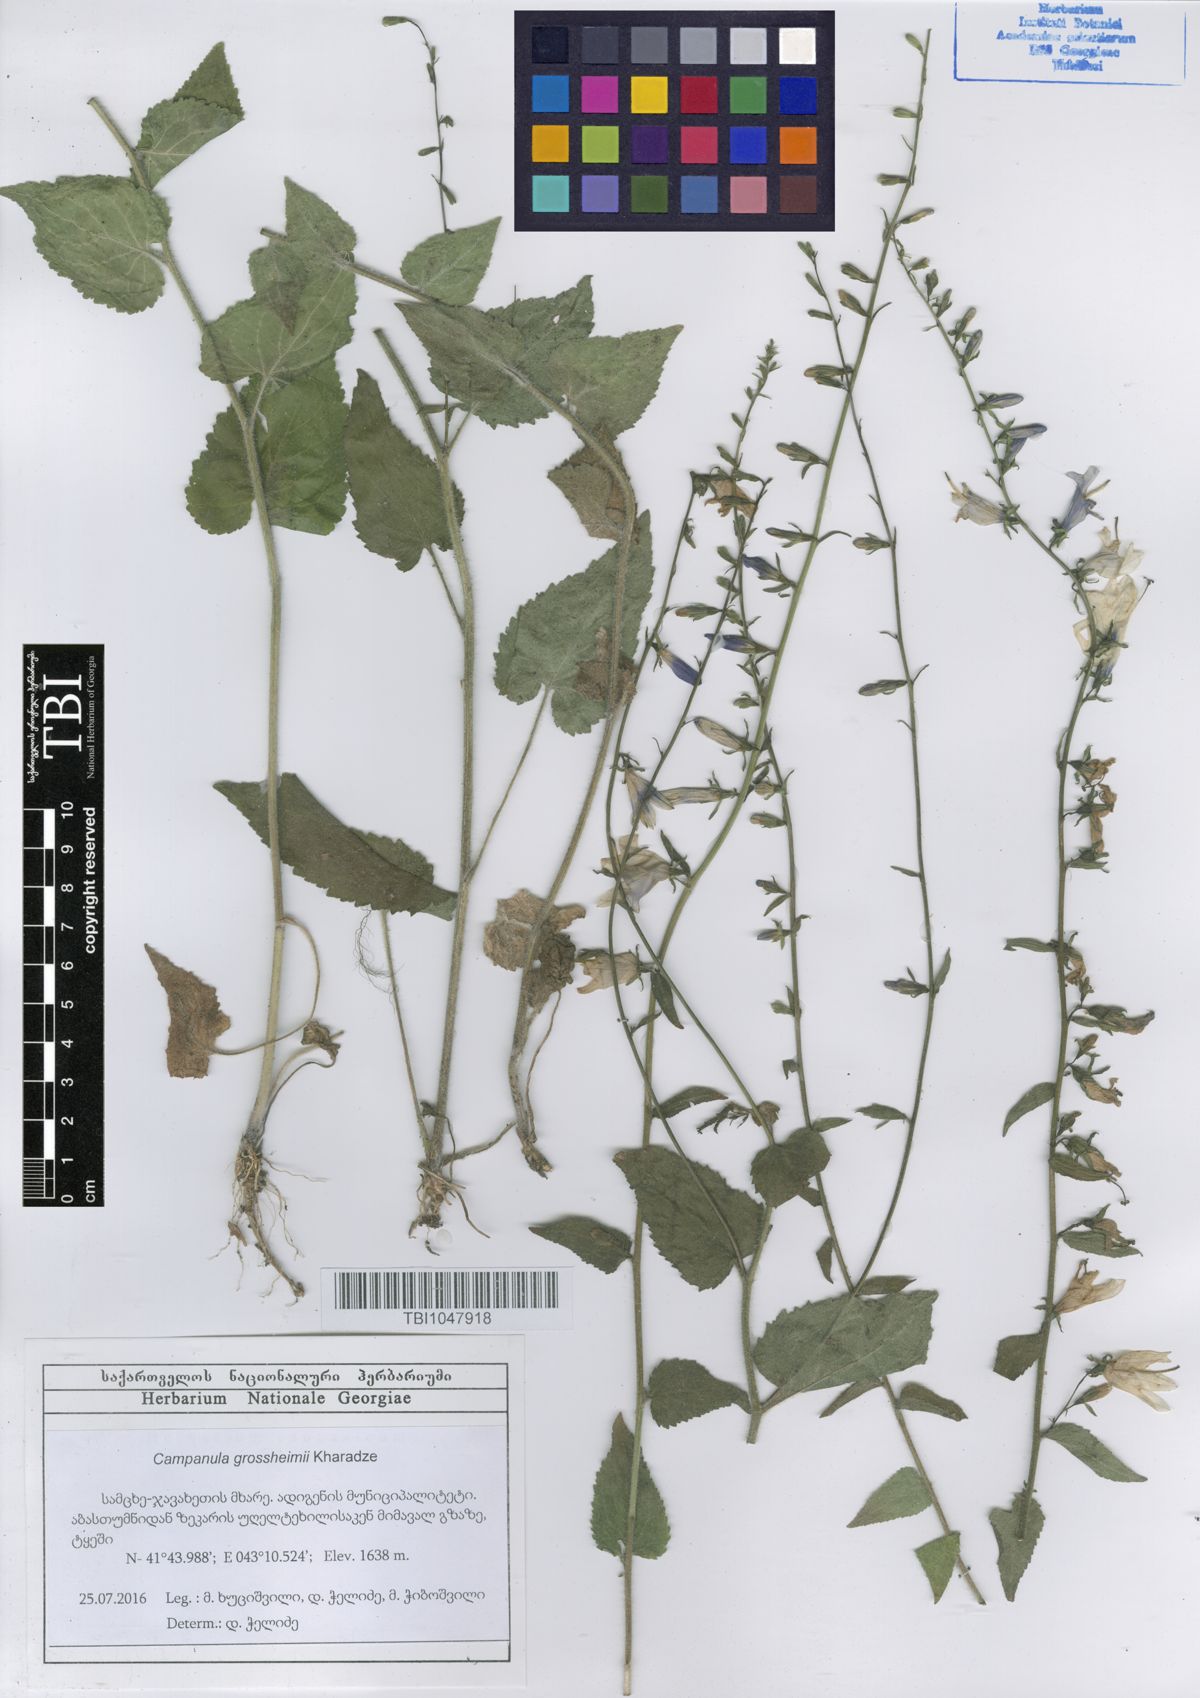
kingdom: Plantae
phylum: Tracheophyta
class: Magnoliopsida
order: Asterales
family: Campanulaceae
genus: Campanula
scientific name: Campanula rapunculoides
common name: Creeping bellflower
